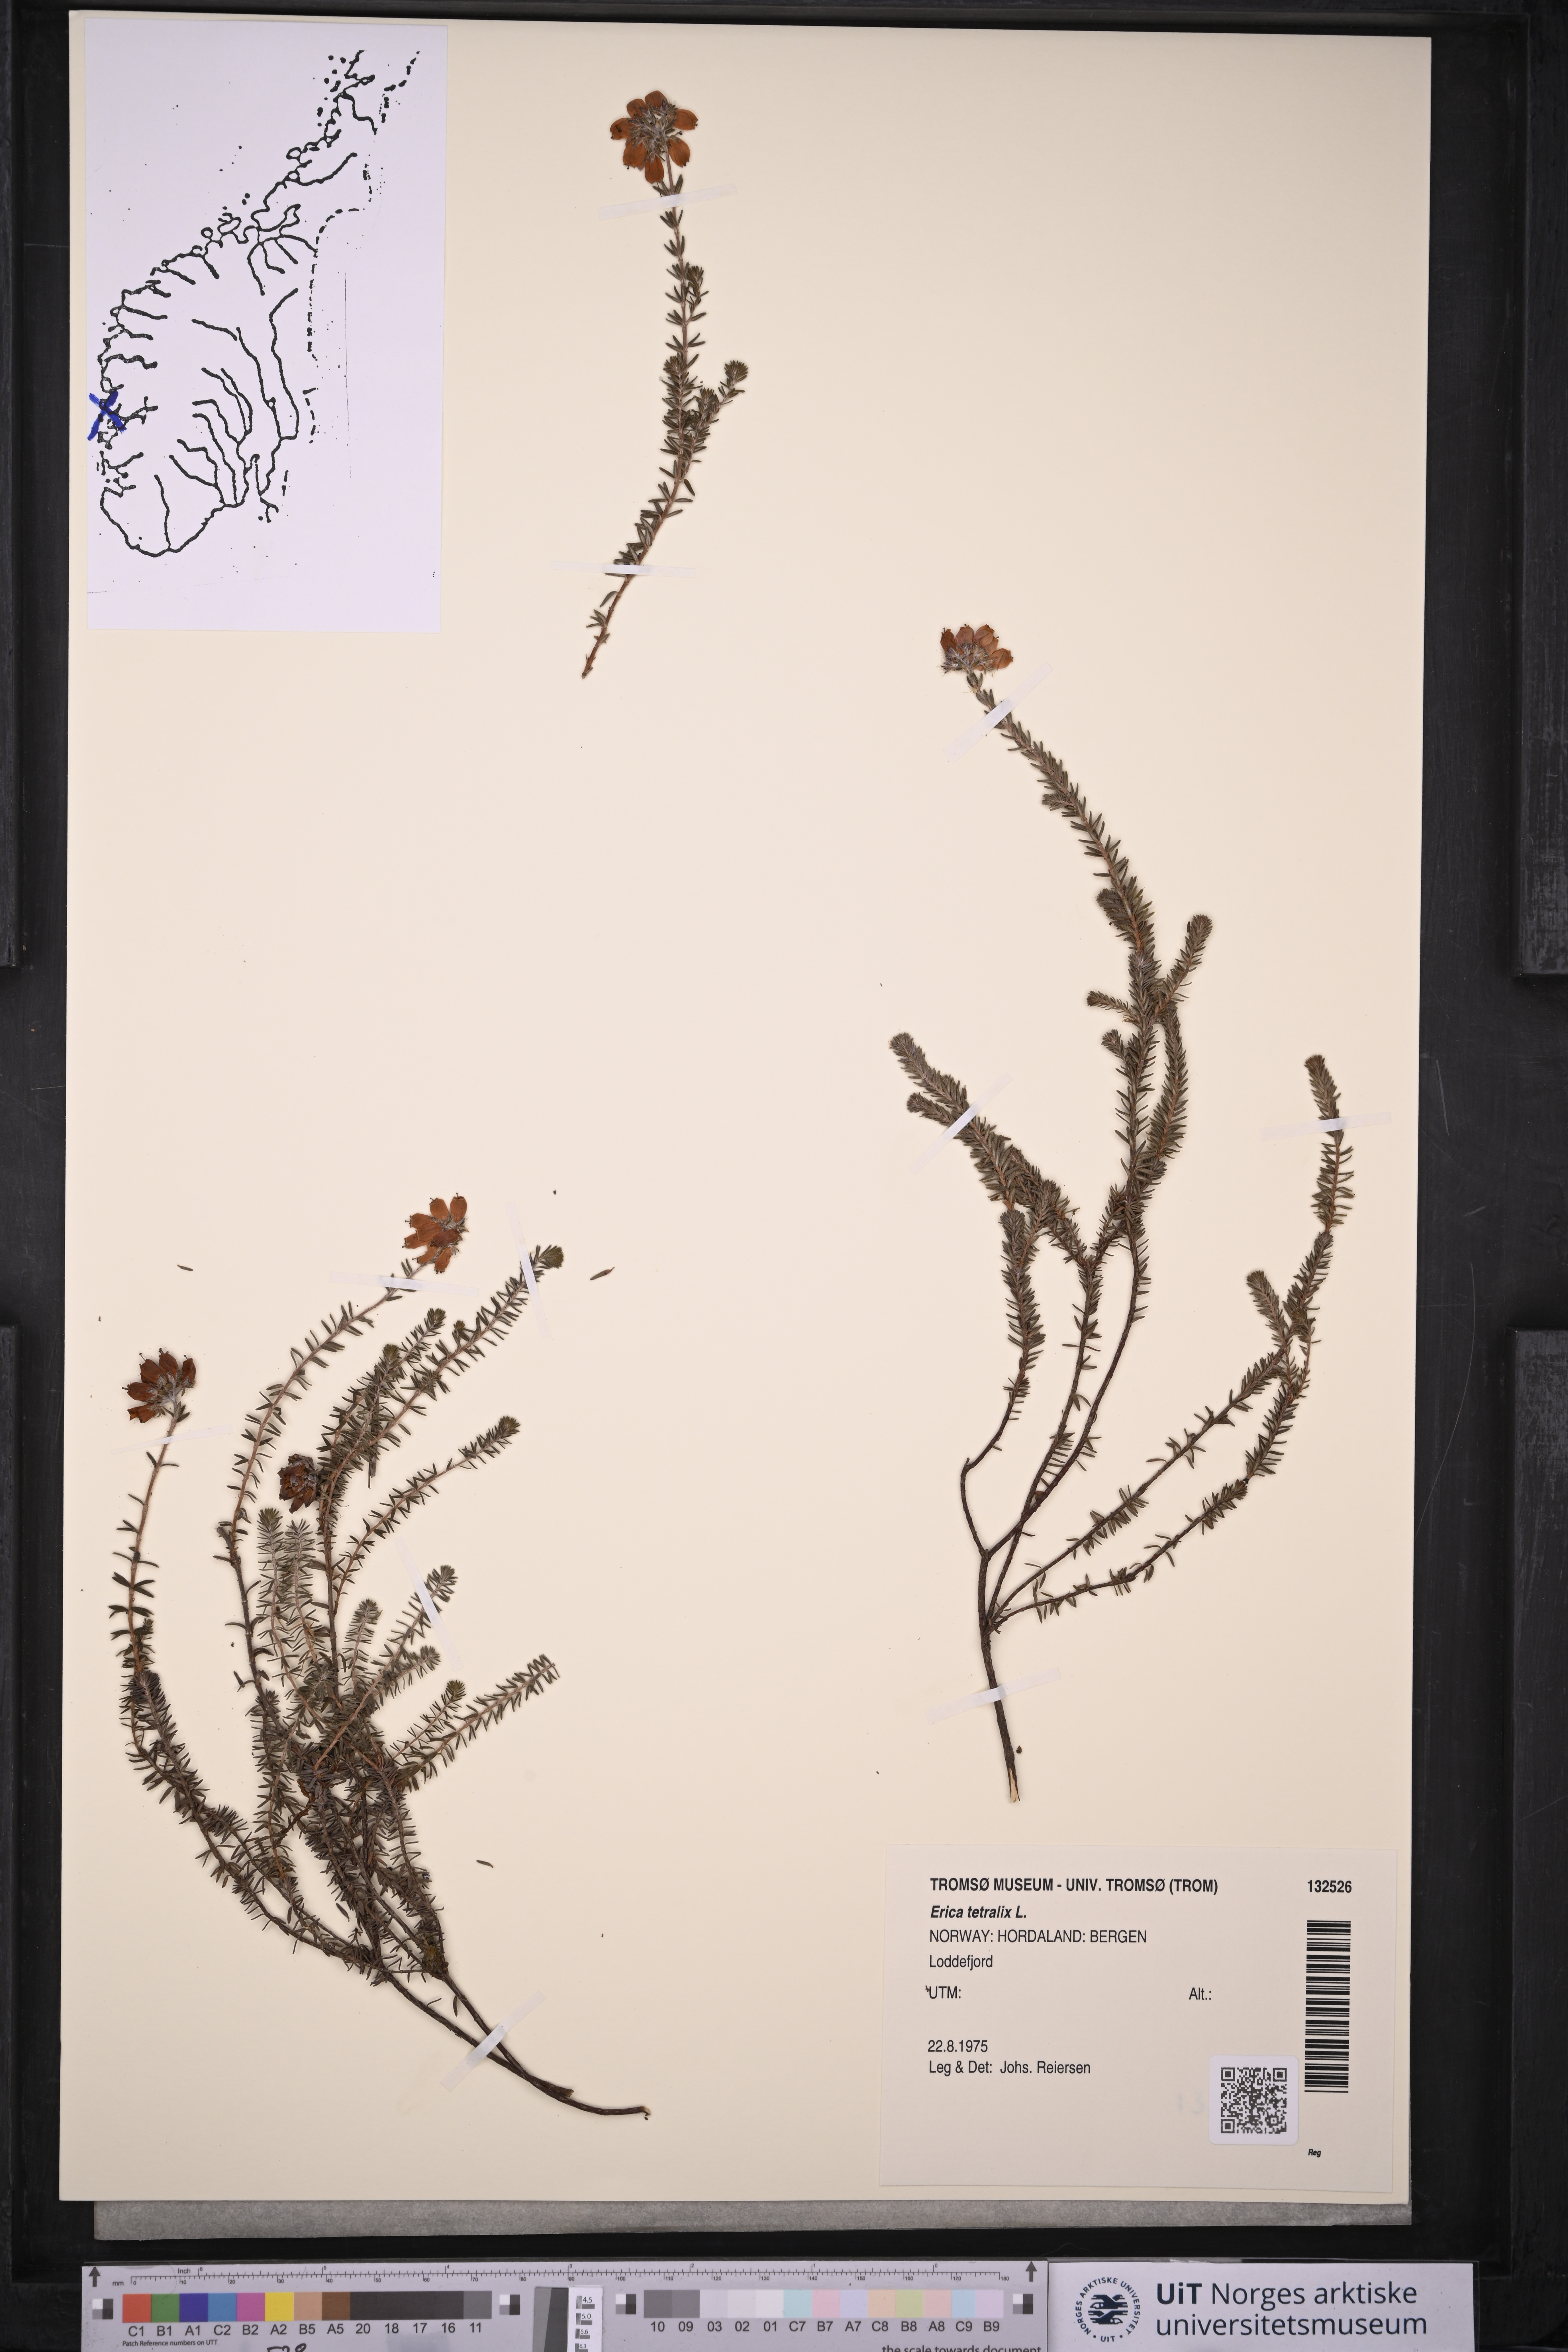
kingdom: Plantae
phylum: Tracheophyta
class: Magnoliopsida
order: Ericales
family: Ericaceae
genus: Erica
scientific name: Erica tetralix
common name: Cross-leaved heath
